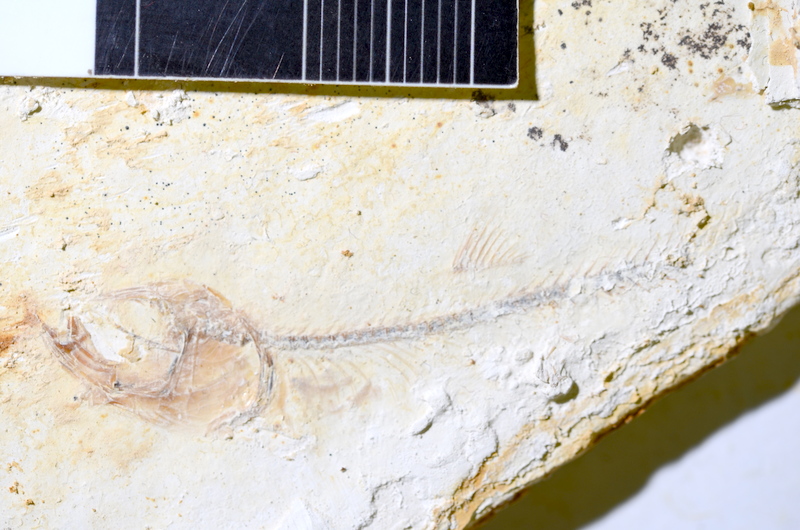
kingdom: Animalia
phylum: Chordata
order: Salmoniformes
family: Orthogonikleithridae
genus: Orthogonikleithrus
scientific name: Orthogonikleithrus hoelli
